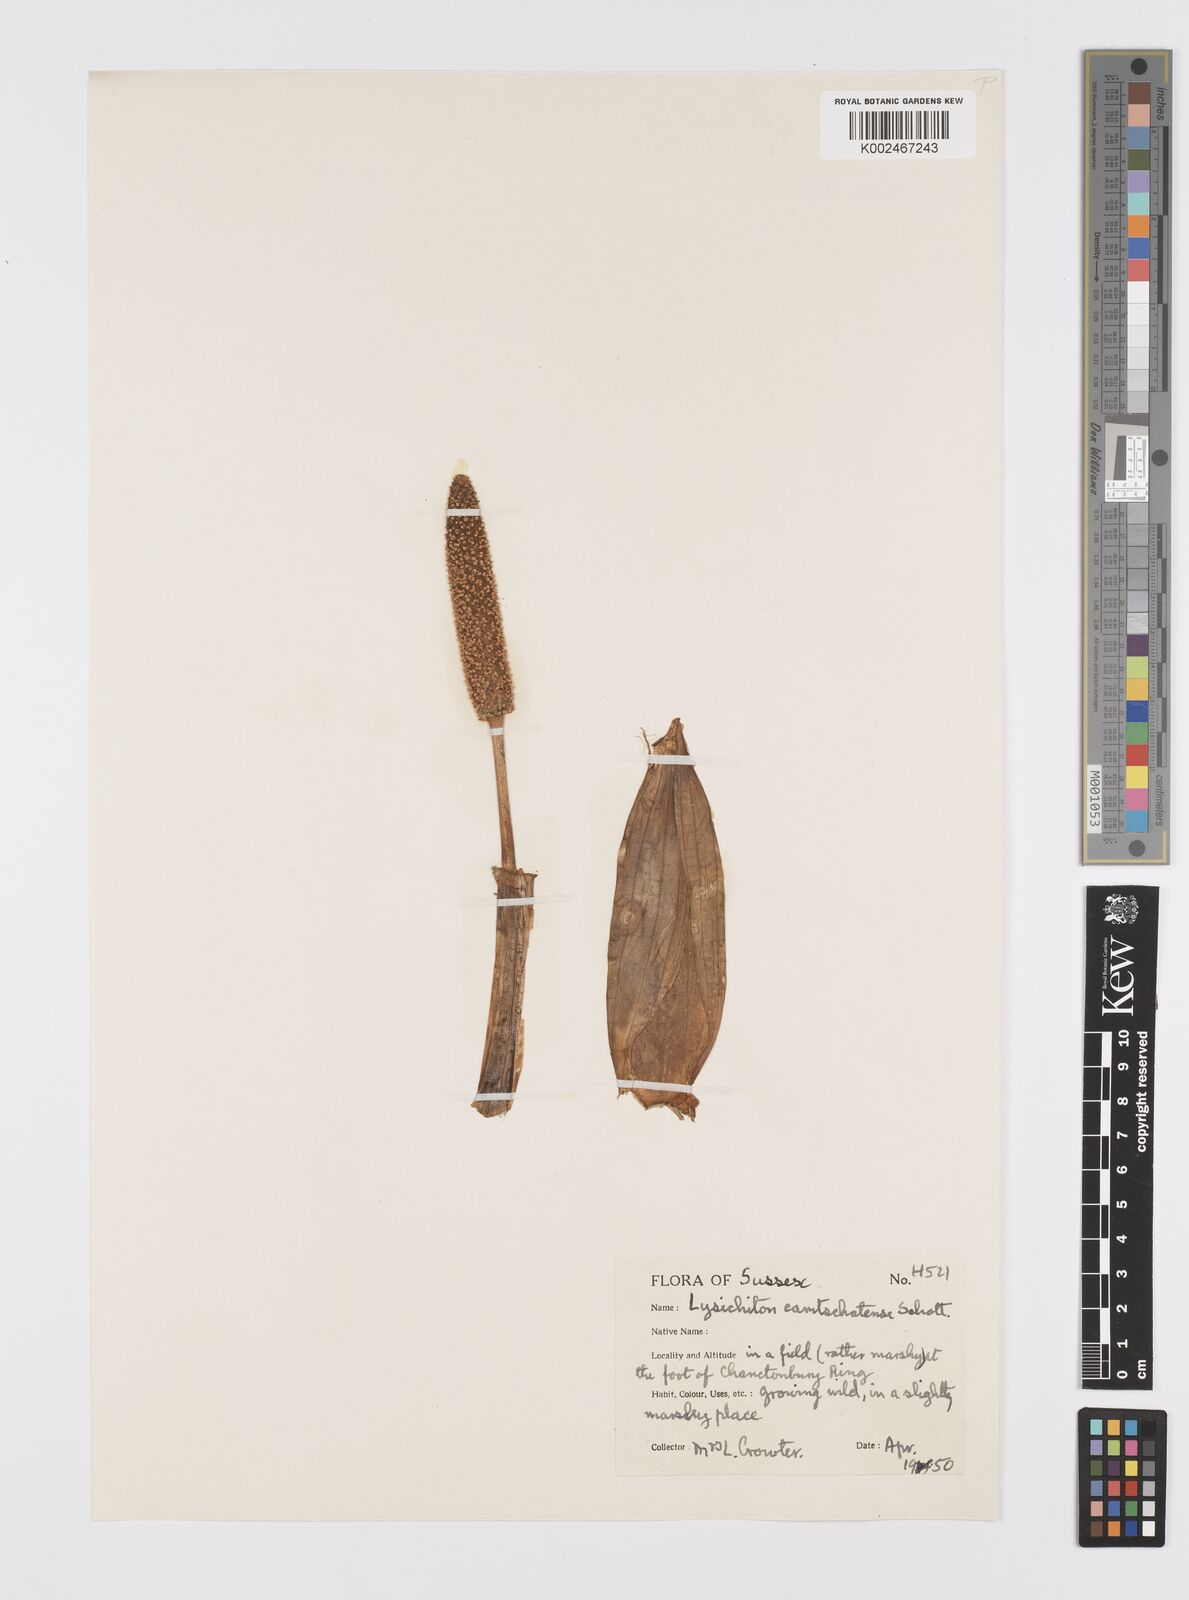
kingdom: Plantae
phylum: Tracheophyta
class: Liliopsida
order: Alismatales
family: Araceae
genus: Lysichiton
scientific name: Lysichiton americanus
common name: American skunk cabbage
